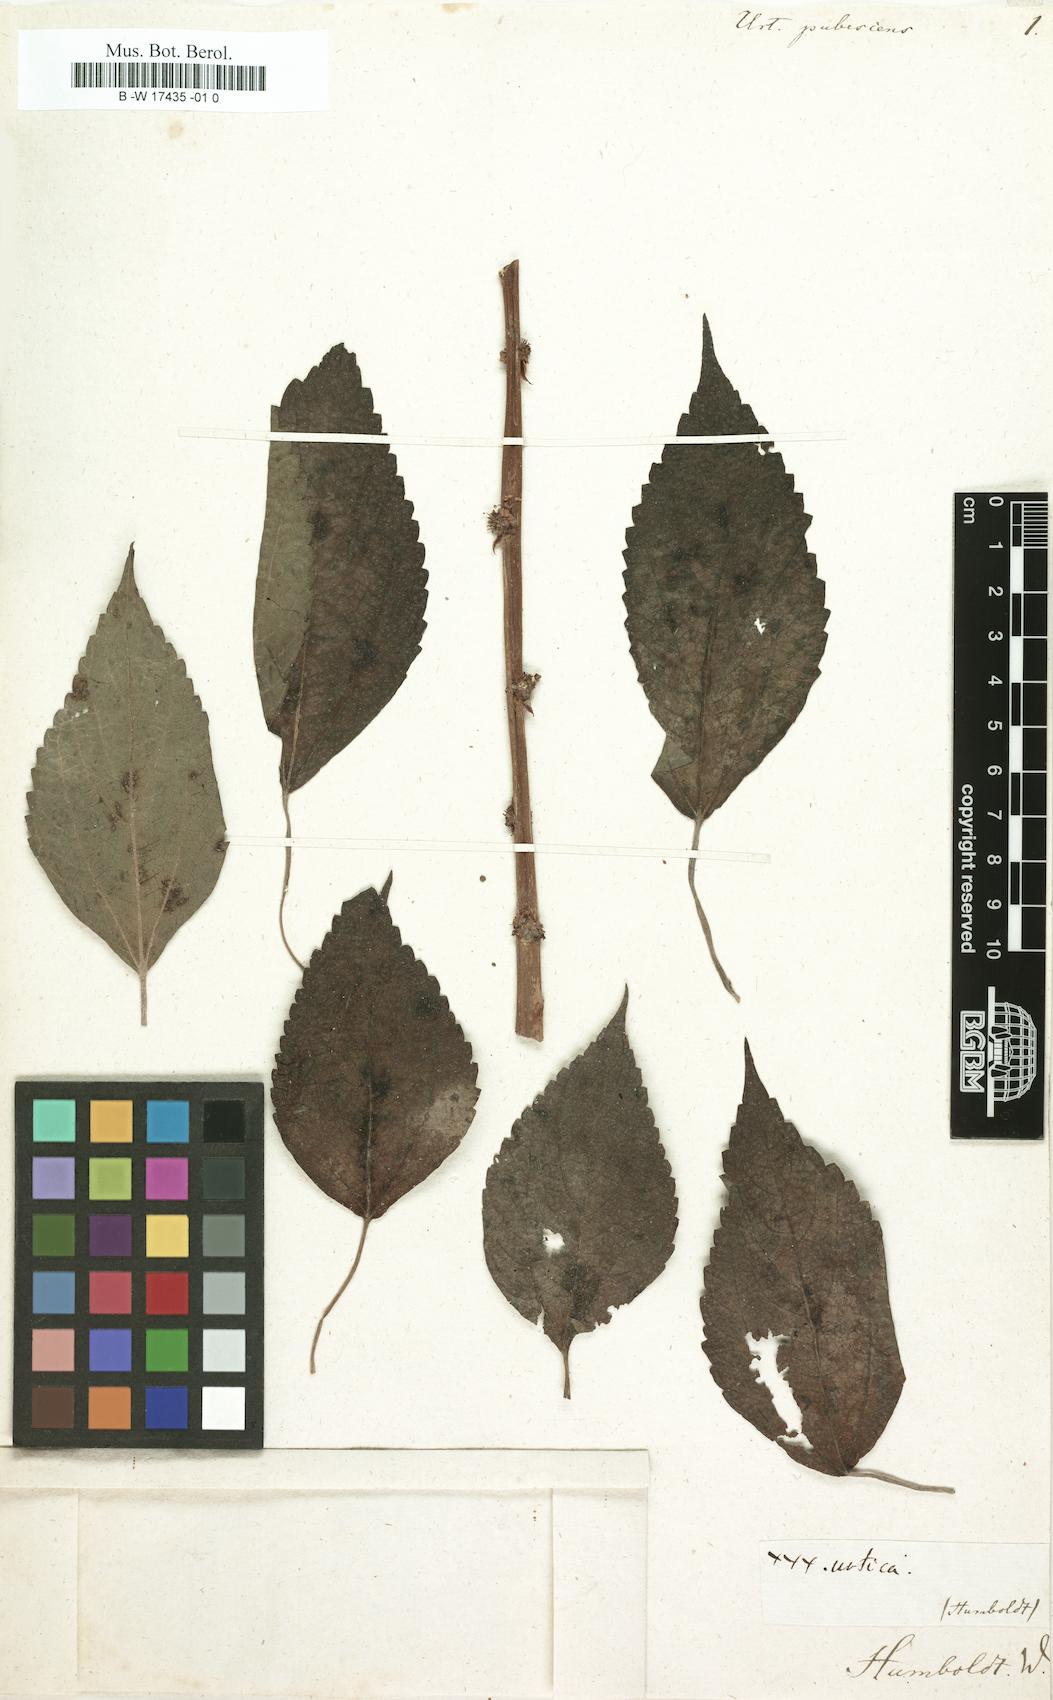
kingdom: Plantae
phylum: Tracheophyta
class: Magnoliopsida
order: Rosales
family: Urticaceae
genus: Urtica
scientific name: Urtica pubescens
